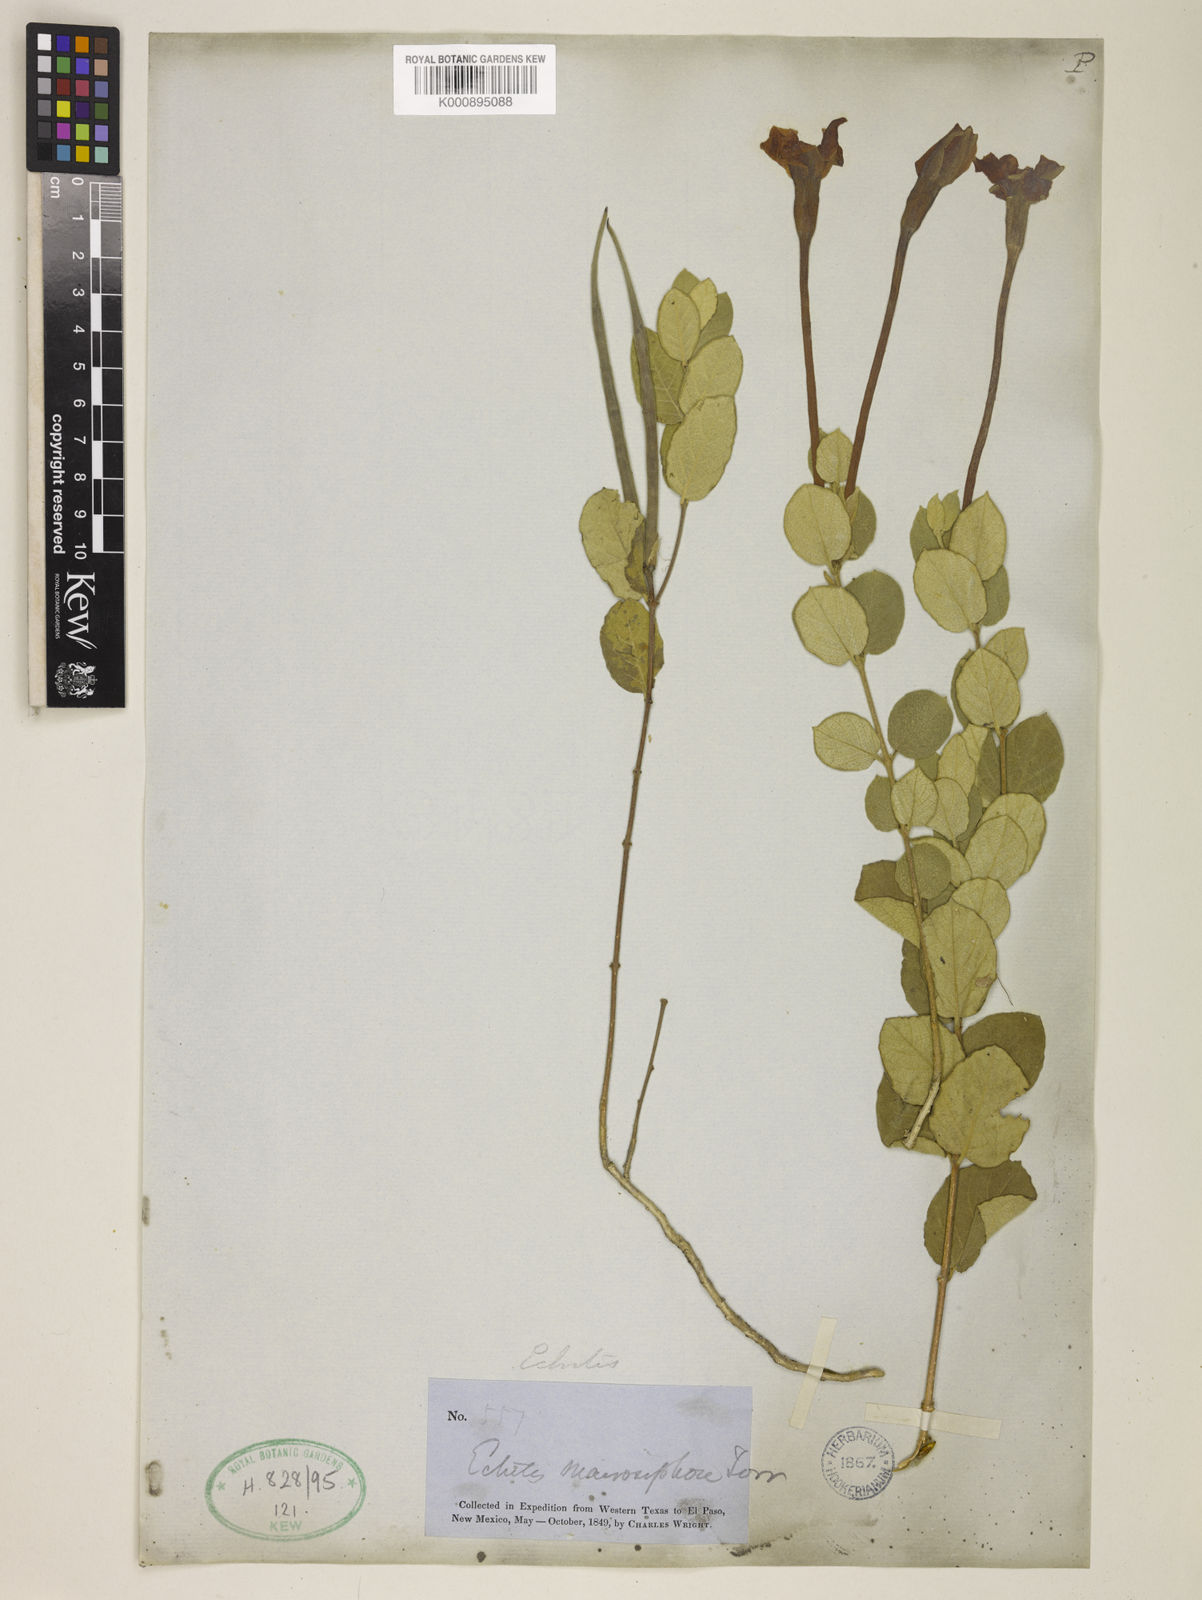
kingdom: Plantae
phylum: Tracheophyta
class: Magnoliopsida
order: Gentianales
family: Apocynaceae
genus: Mandevilla
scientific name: Mandevilla macrosiphon
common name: Plateau rocktrumpet
